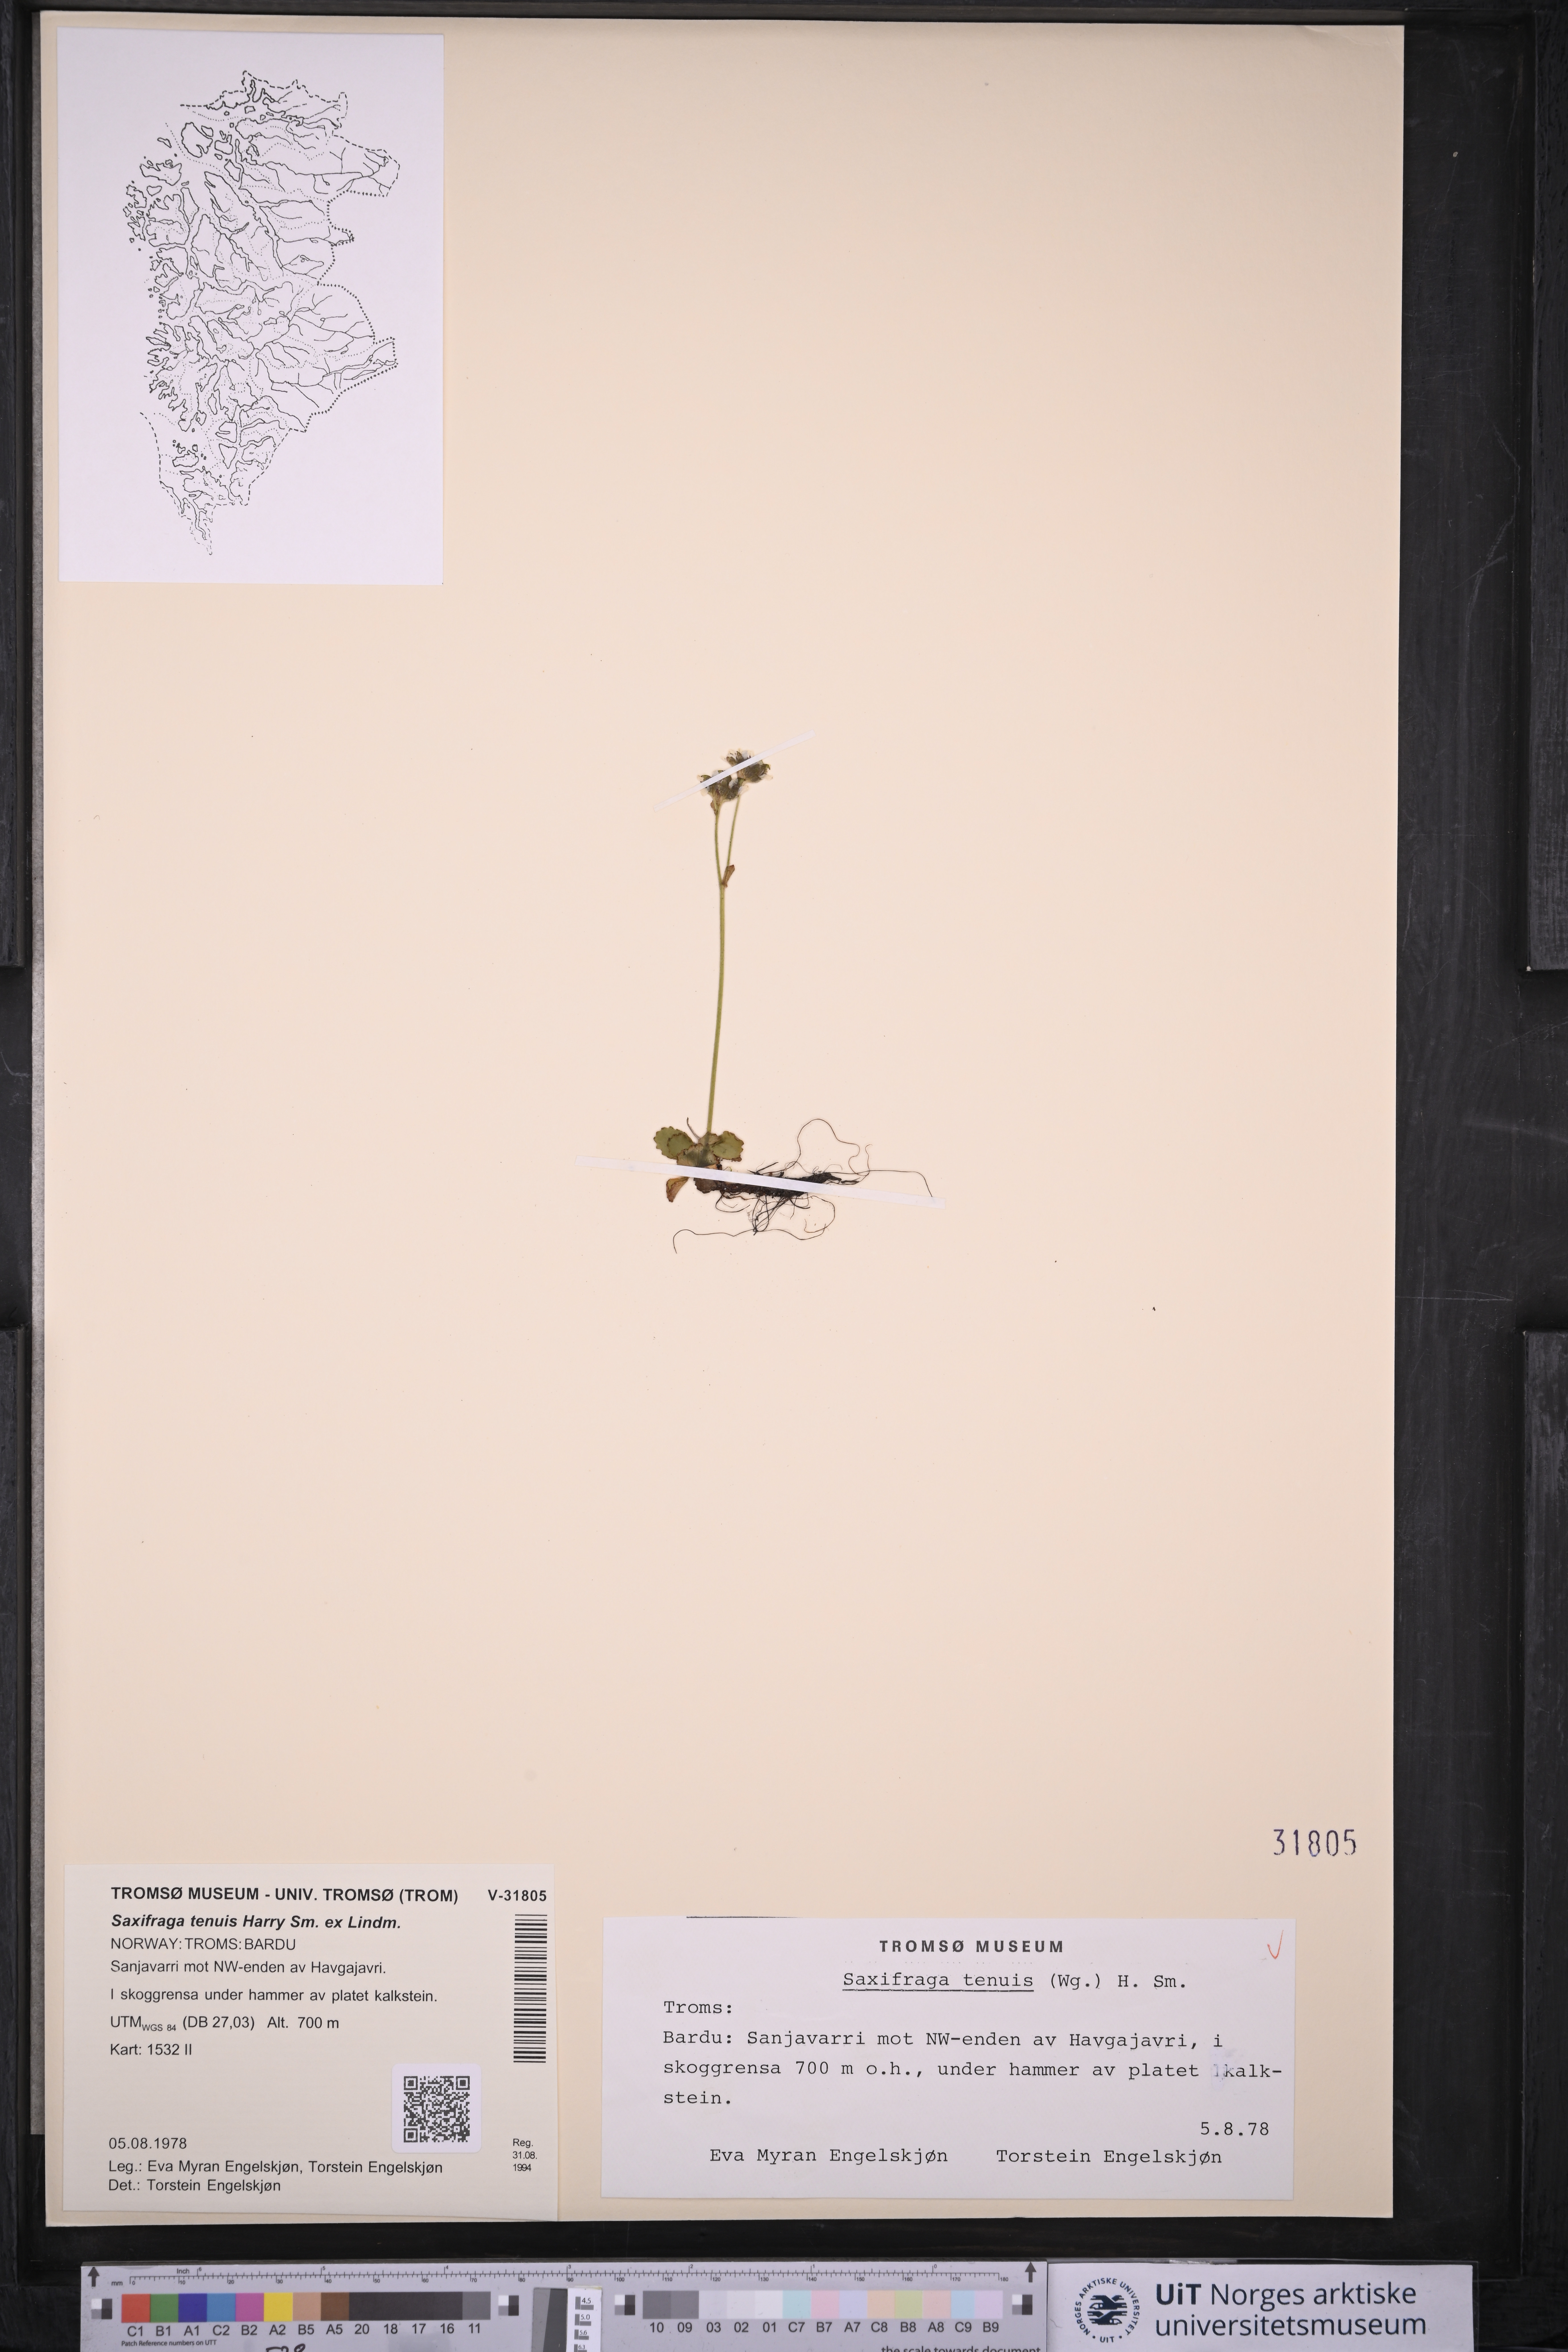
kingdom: Plantae
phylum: Tracheophyta
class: Magnoliopsida
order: Saxifragales
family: Saxifragaceae
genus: Micranthes
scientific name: Micranthes tenuis
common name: Ottertail pass saxifrage
